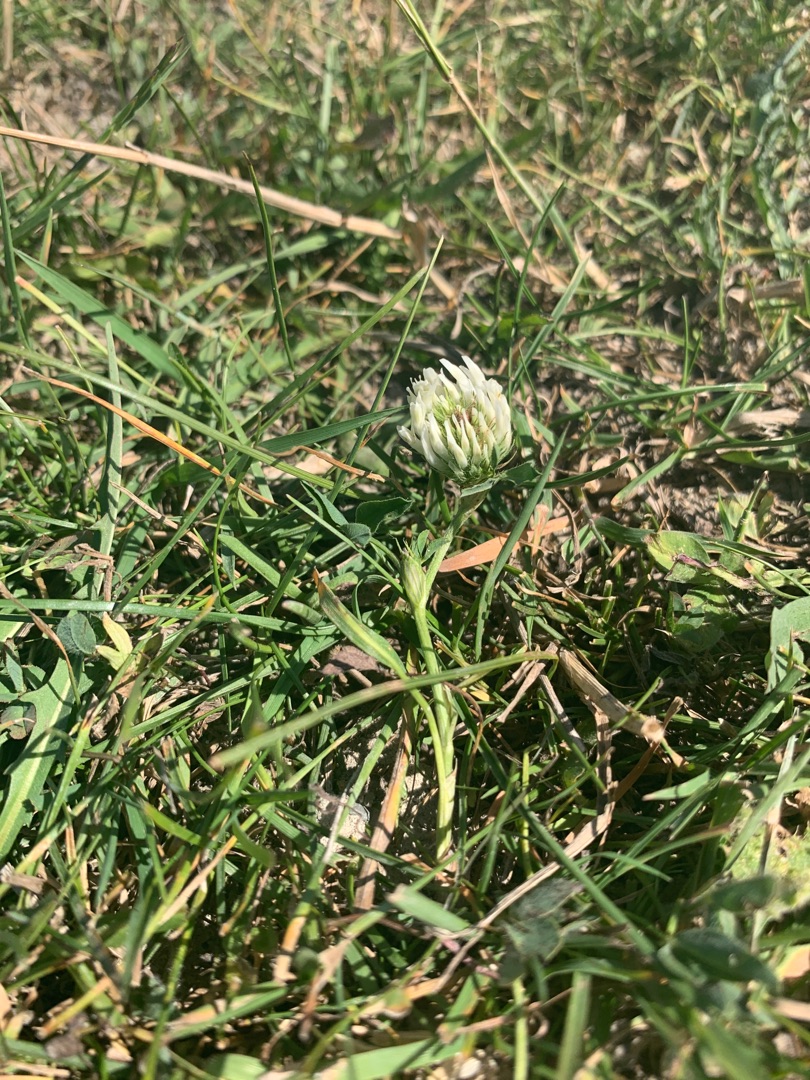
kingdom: Plantae
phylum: Tracheophyta
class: Magnoliopsida
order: Fabales
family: Fabaceae
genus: Trifolium
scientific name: Trifolium repens
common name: Hvid-kløver
